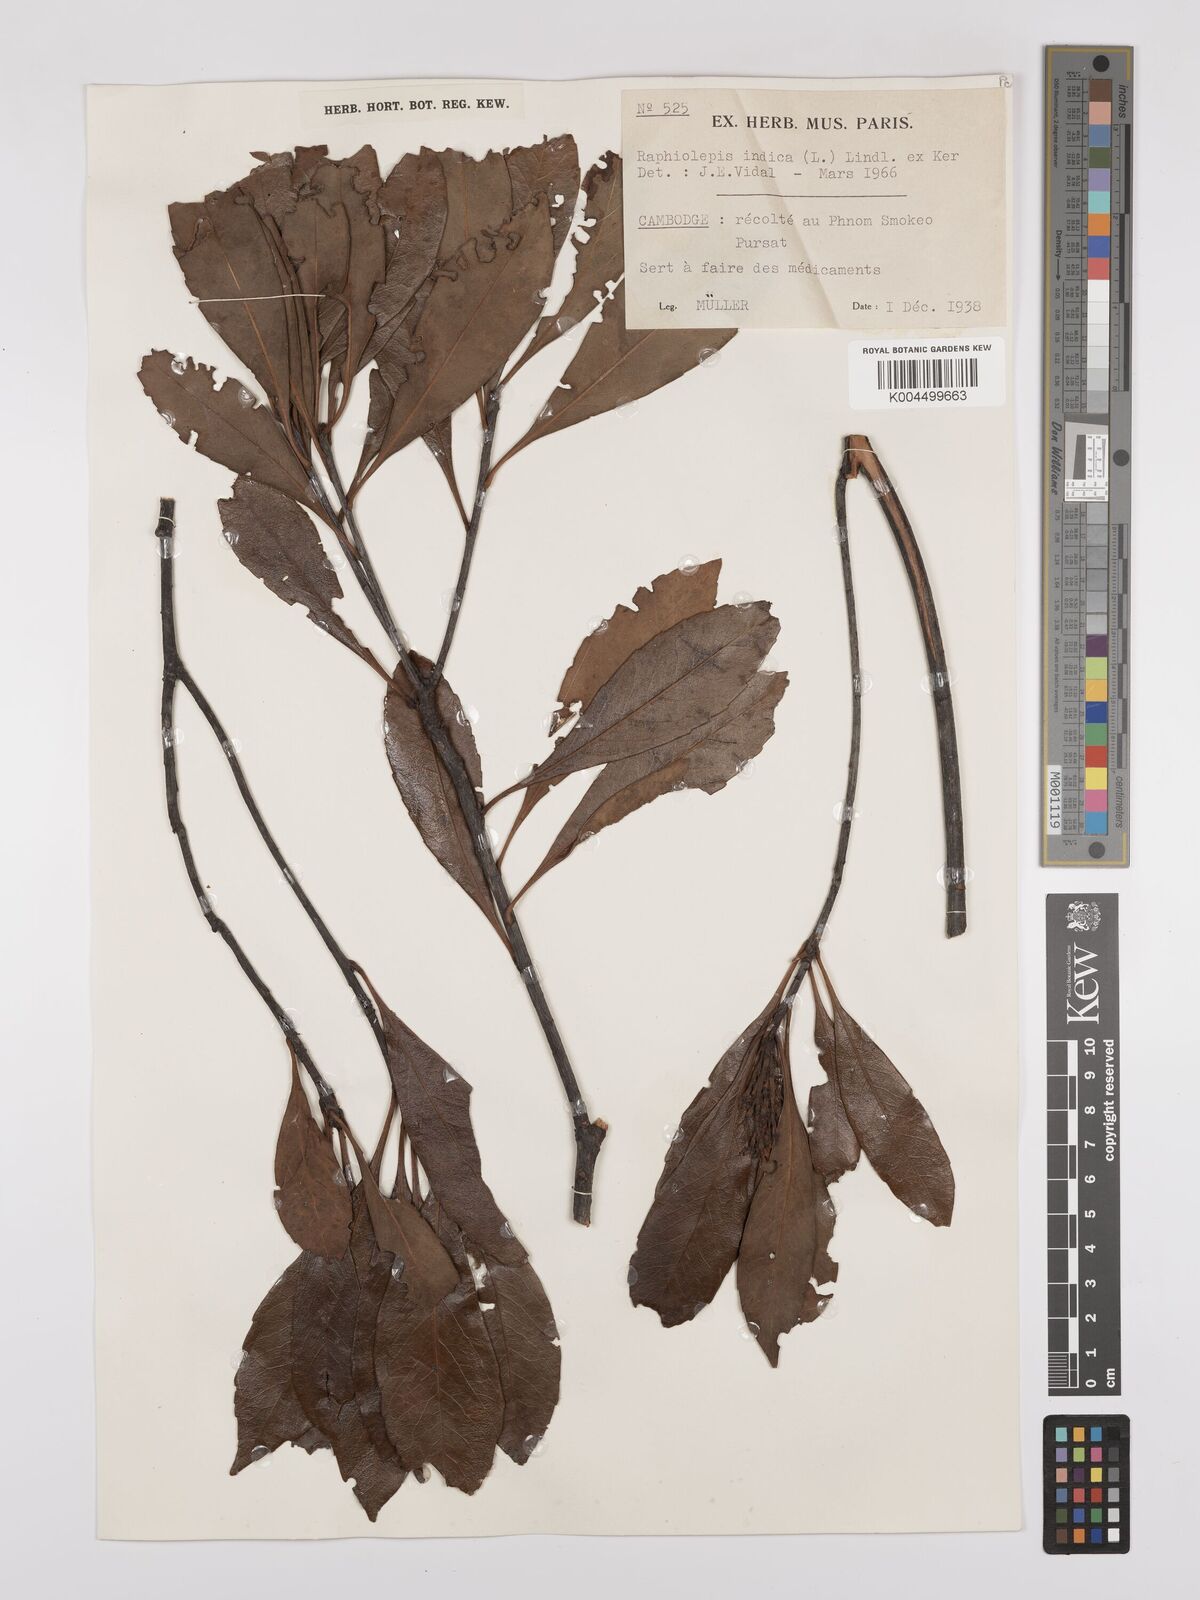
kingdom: Plantae
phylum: Tracheophyta
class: Magnoliopsida
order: Rosales
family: Rosaceae
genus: Rhaphiolepis
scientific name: Rhaphiolepis indica
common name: India-hawthorn
